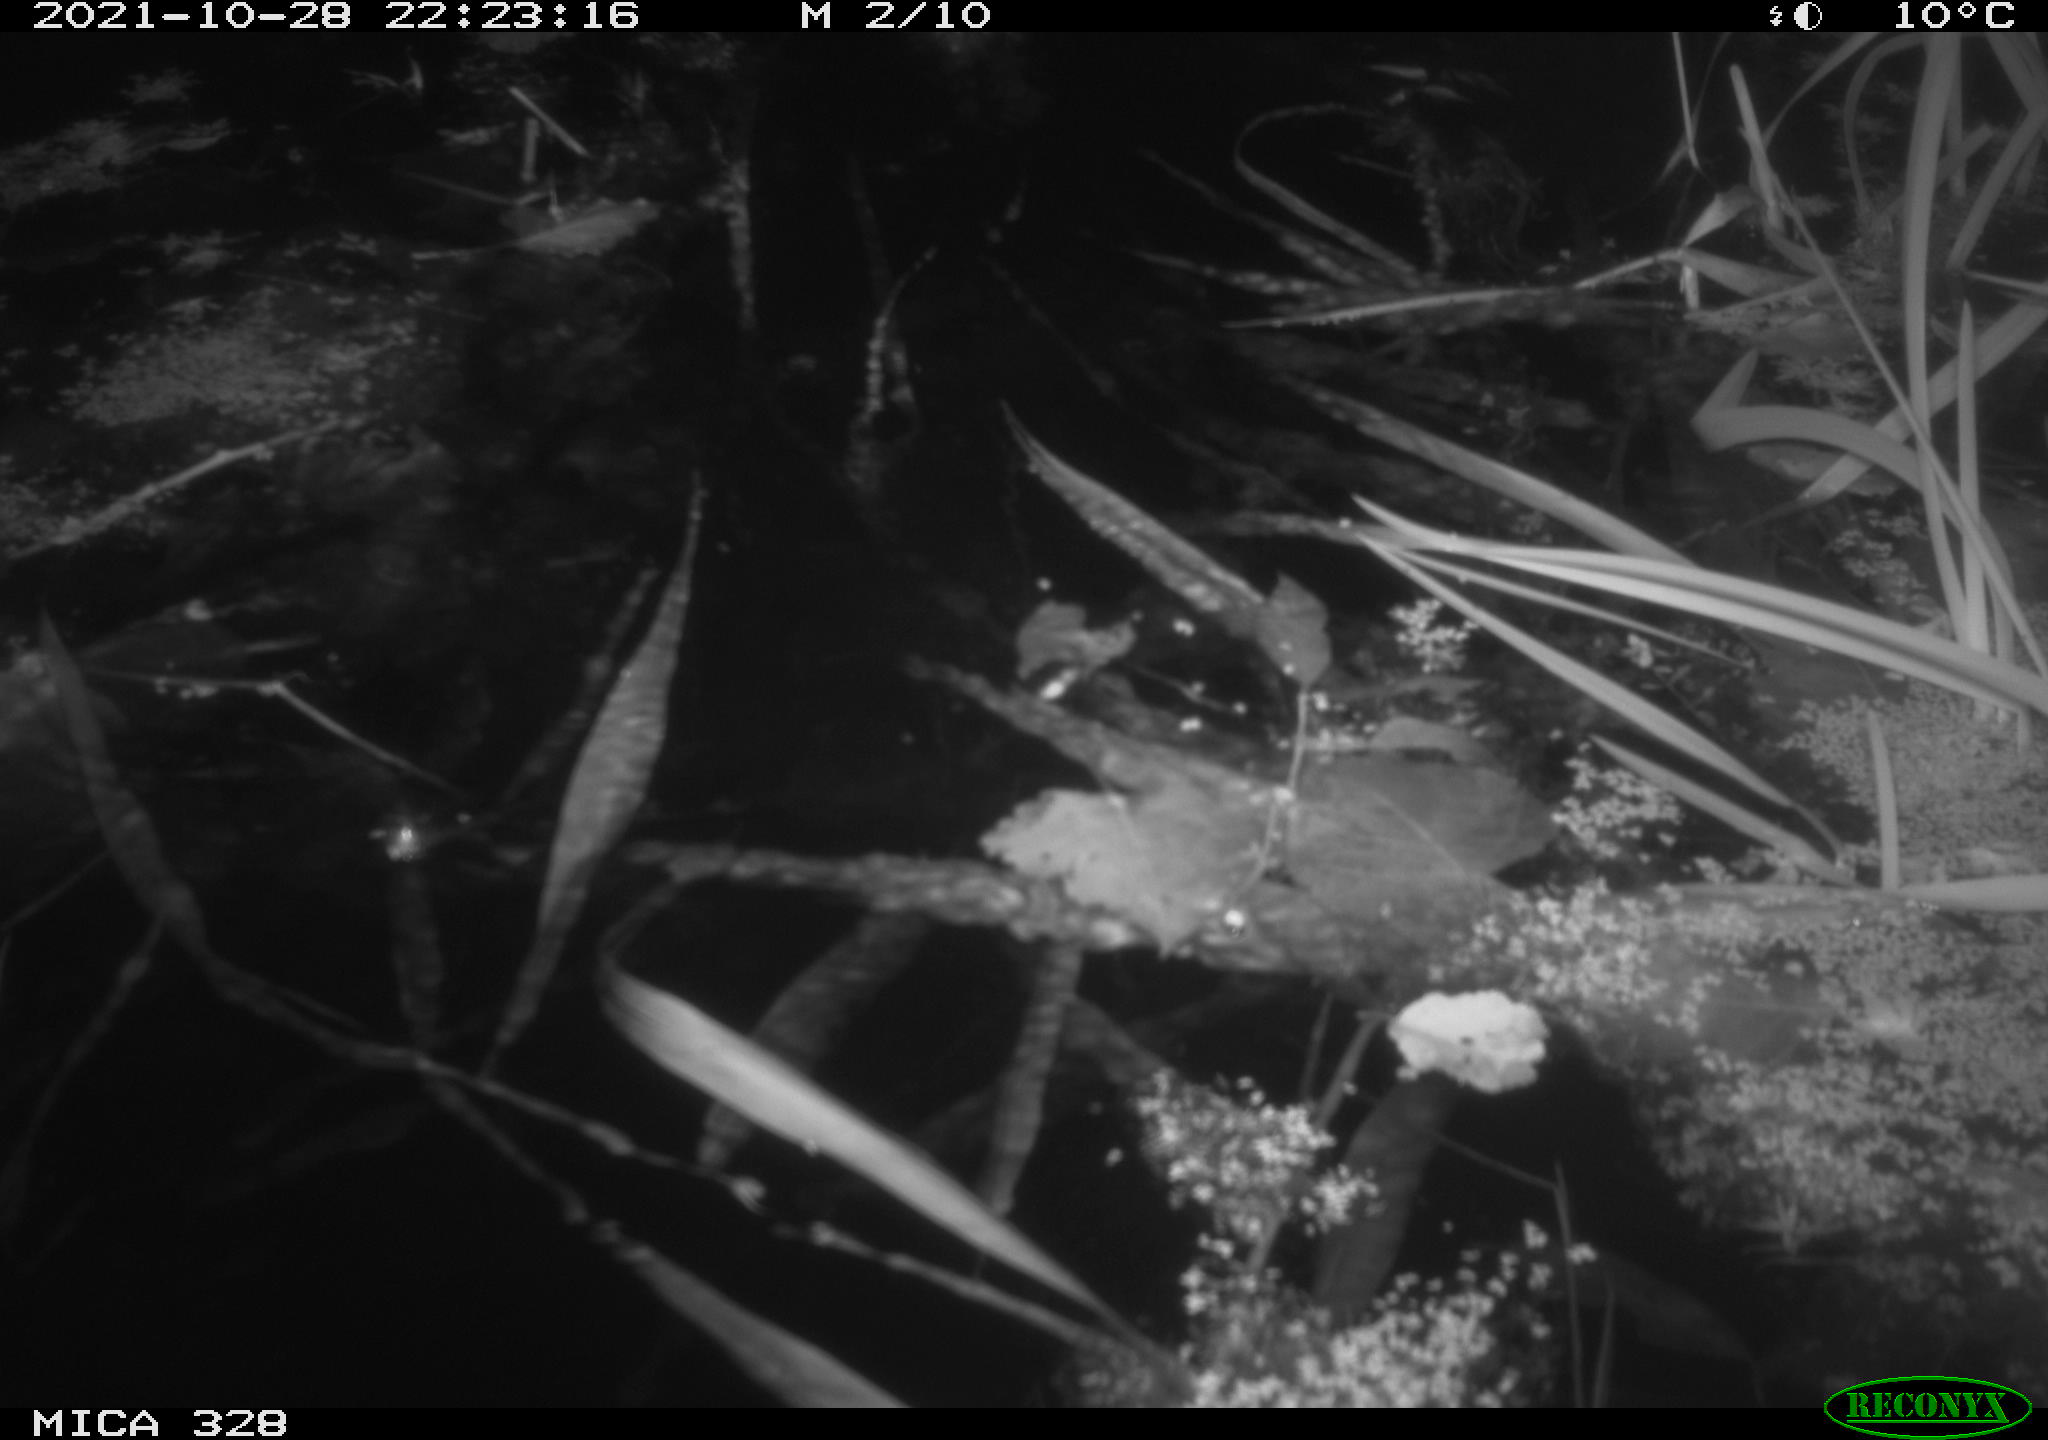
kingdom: Animalia
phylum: Chordata
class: Mammalia
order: Rodentia
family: Cricetidae
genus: Ondatra
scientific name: Ondatra zibethicus
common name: Muskrat
